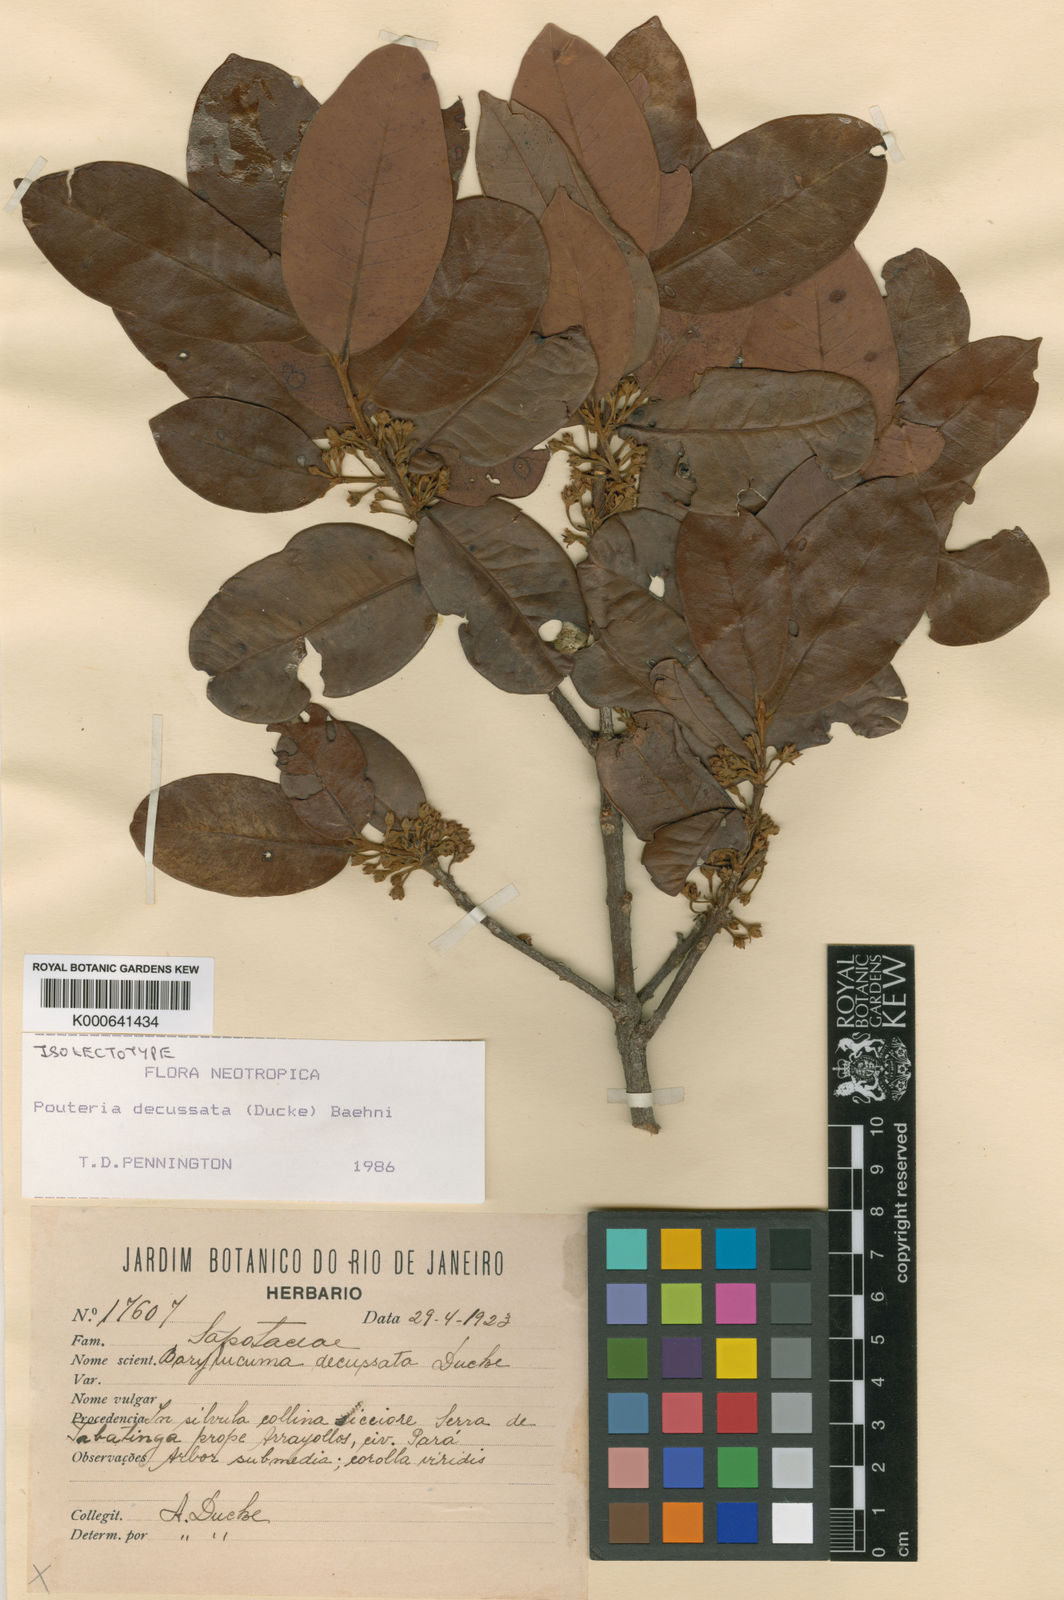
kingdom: Plantae
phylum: Tracheophyta
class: Magnoliopsida
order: Ericales
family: Sapotaceae
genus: Pouteria
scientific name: Pouteria decussata
